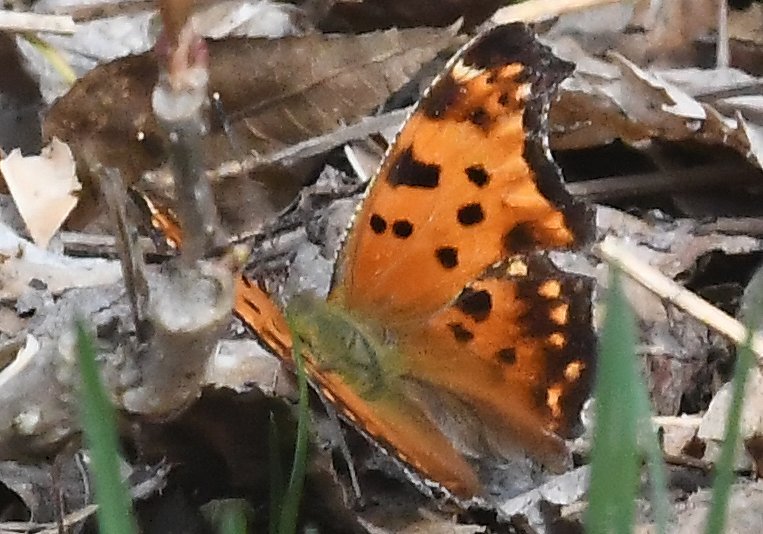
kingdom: Animalia
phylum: Arthropoda
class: Insecta
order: Lepidoptera
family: Nymphalidae
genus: Polygonia
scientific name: Polygonia comma
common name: Eastern Comma
